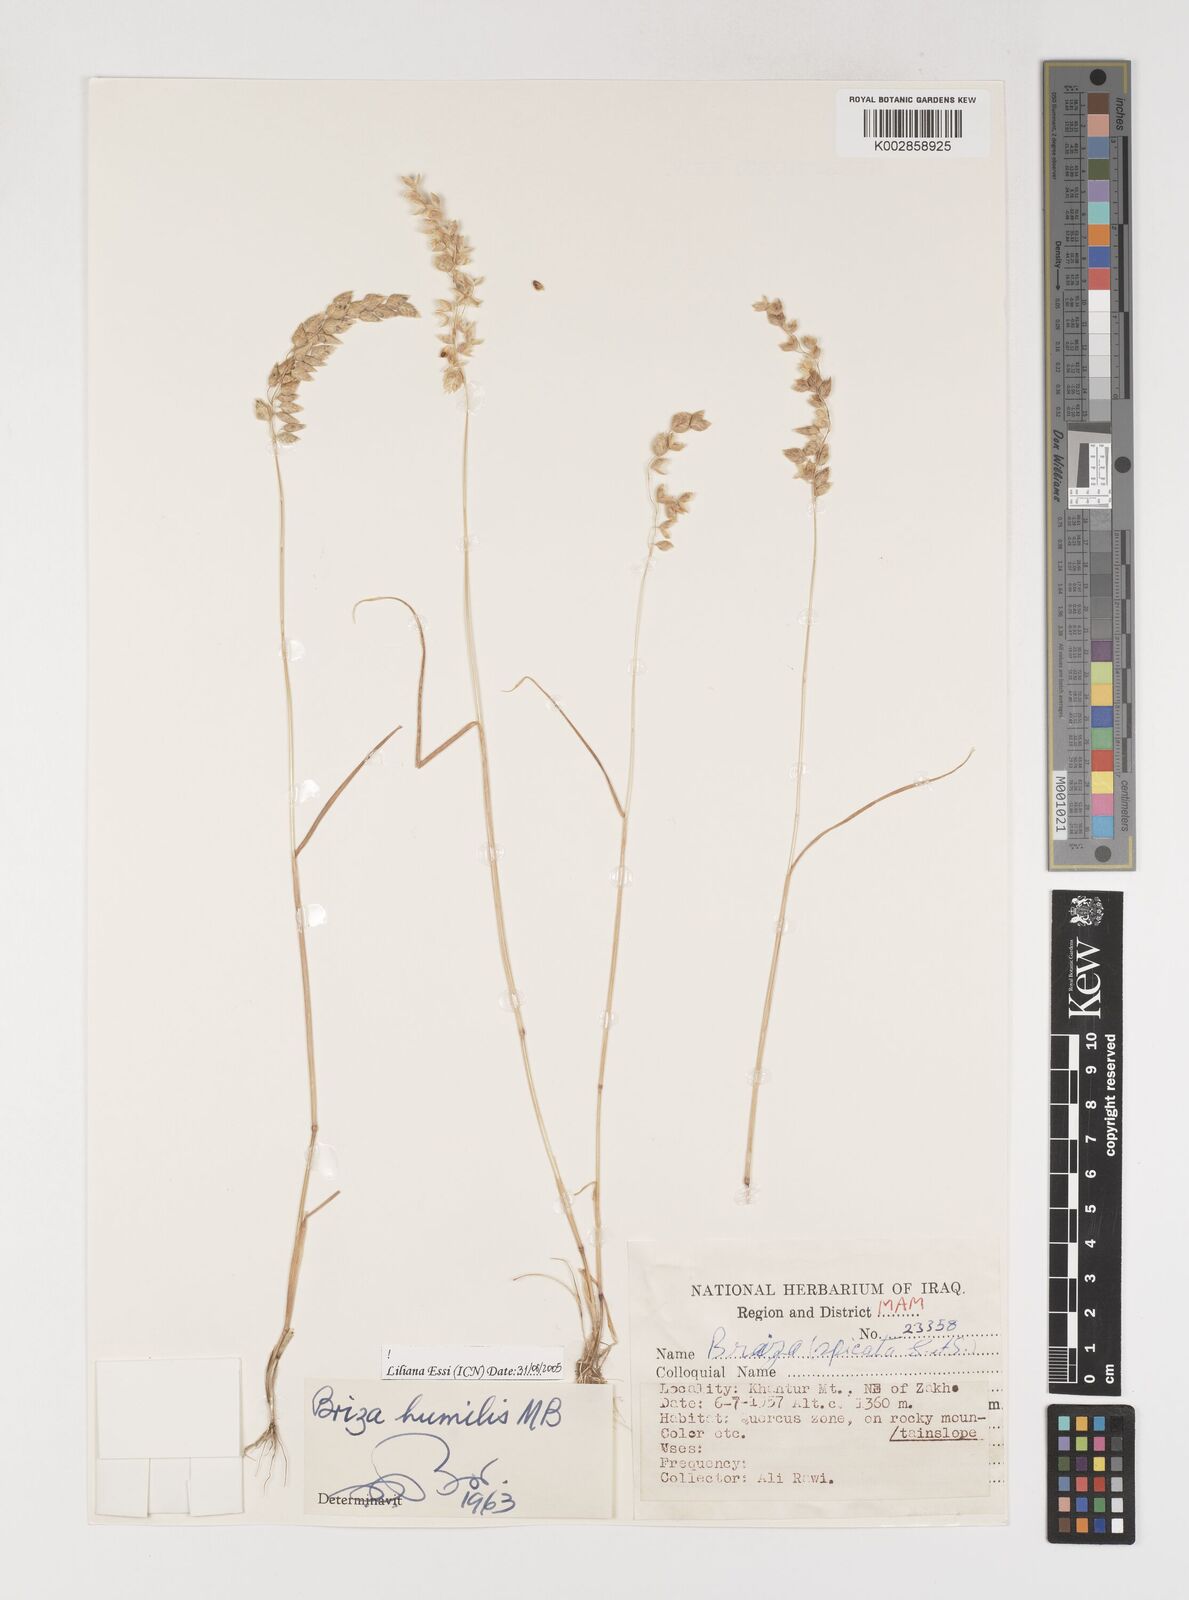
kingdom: Plantae
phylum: Tracheophyta
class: Liliopsida
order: Poales
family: Poaceae
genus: Briza
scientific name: Briza humilis
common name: Spiked quaking grass
